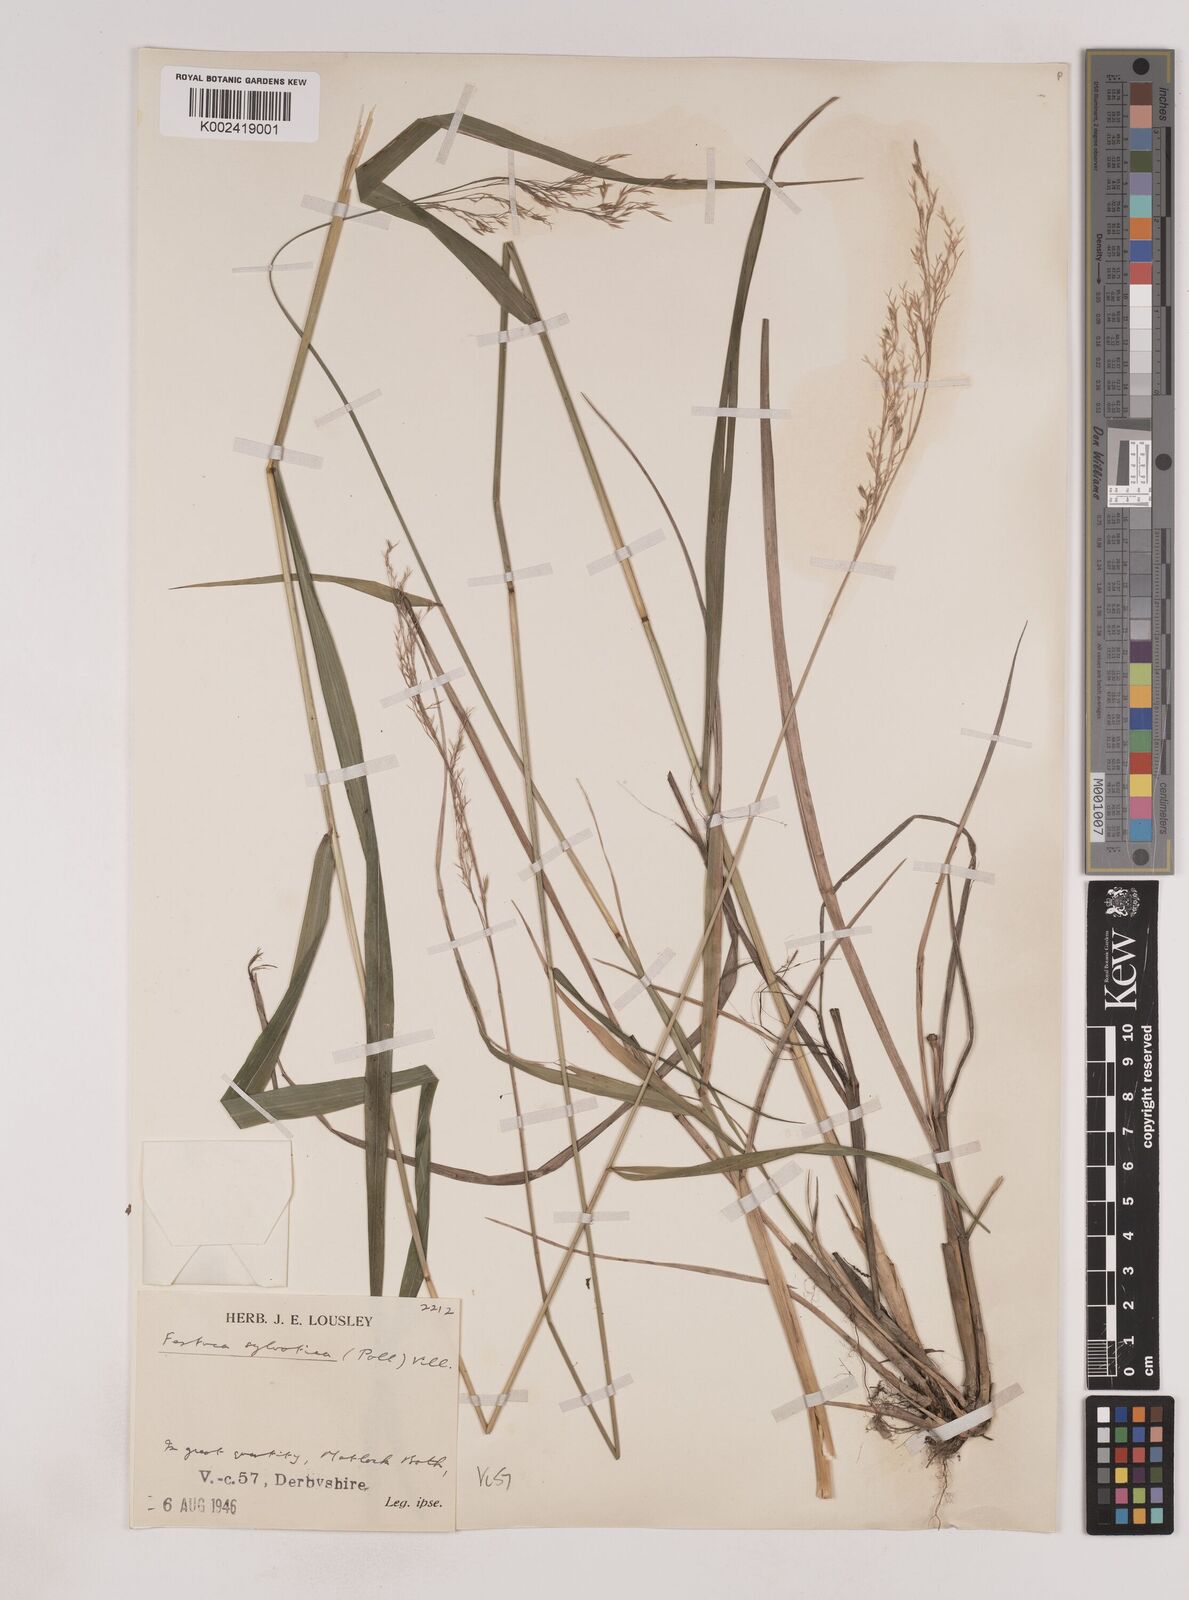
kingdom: Plantae
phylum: Tracheophyta
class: Liliopsida
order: Poales
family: Poaceae
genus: Festuca
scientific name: Festuca drymeja
